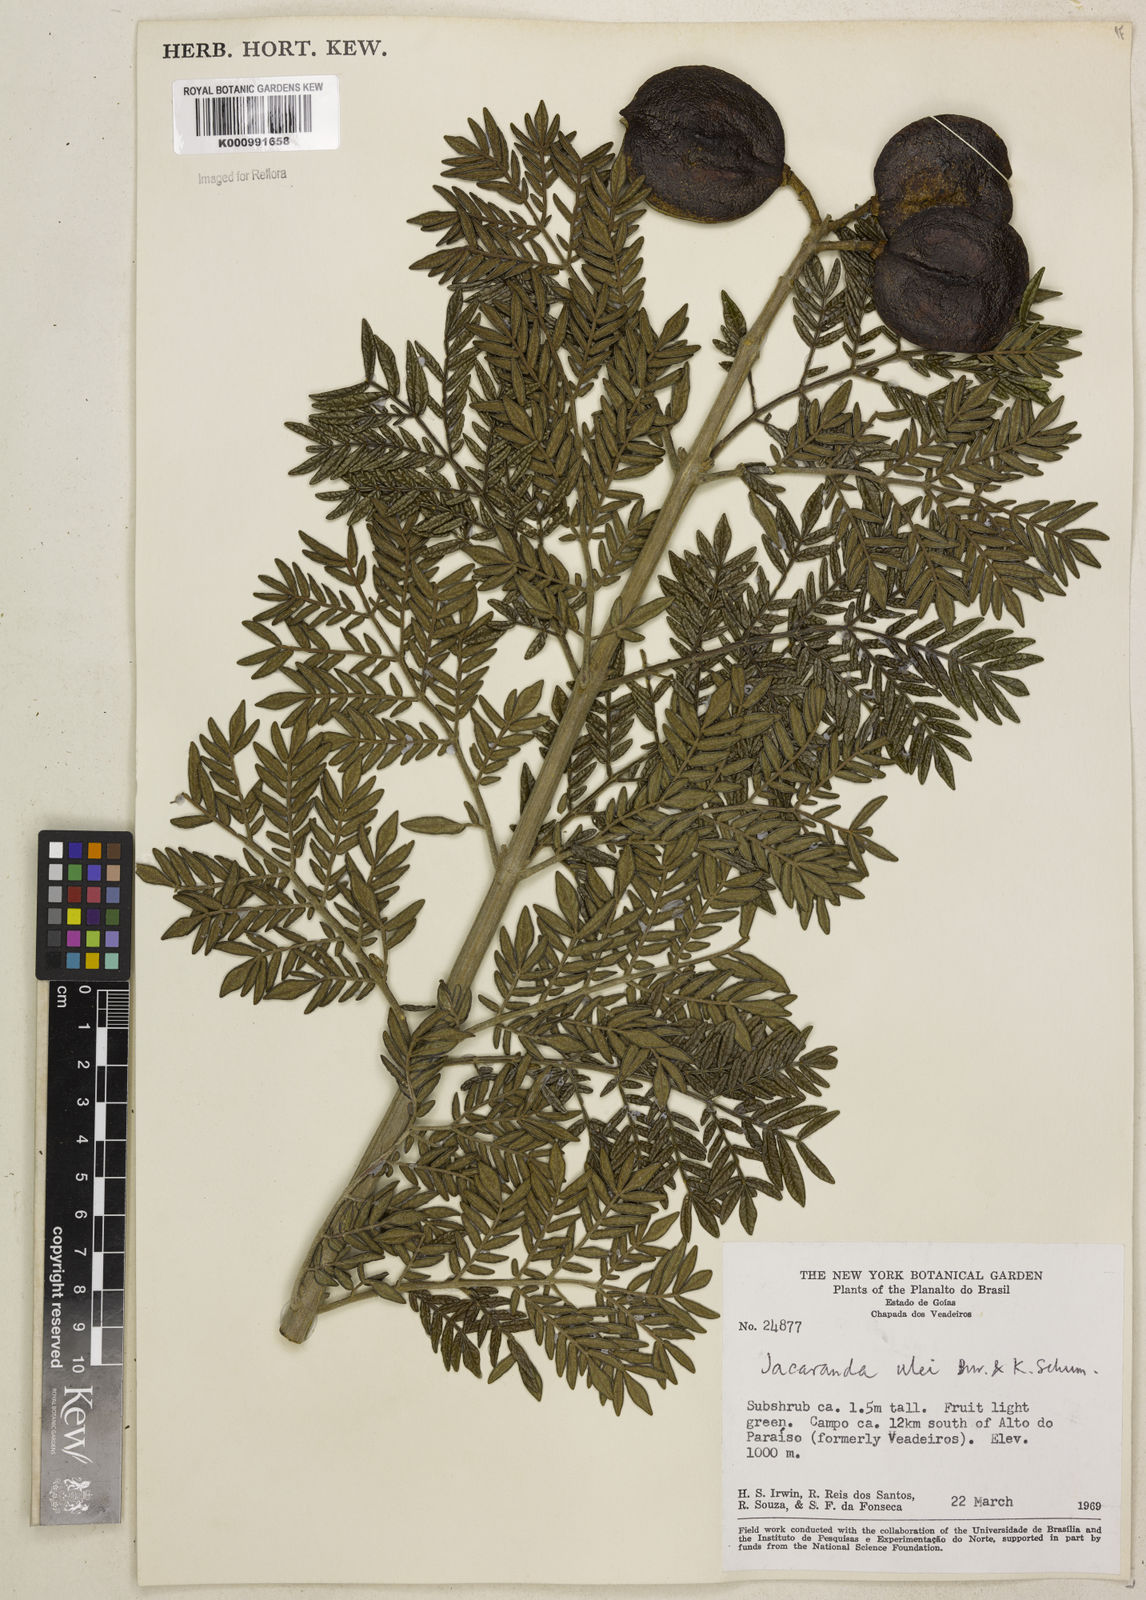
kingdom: Plantae
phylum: Tracheophyta
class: Magnoliopsida
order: Lamiales
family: Bignoniaceae
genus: Jacaranda
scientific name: Jacaranda ulei
